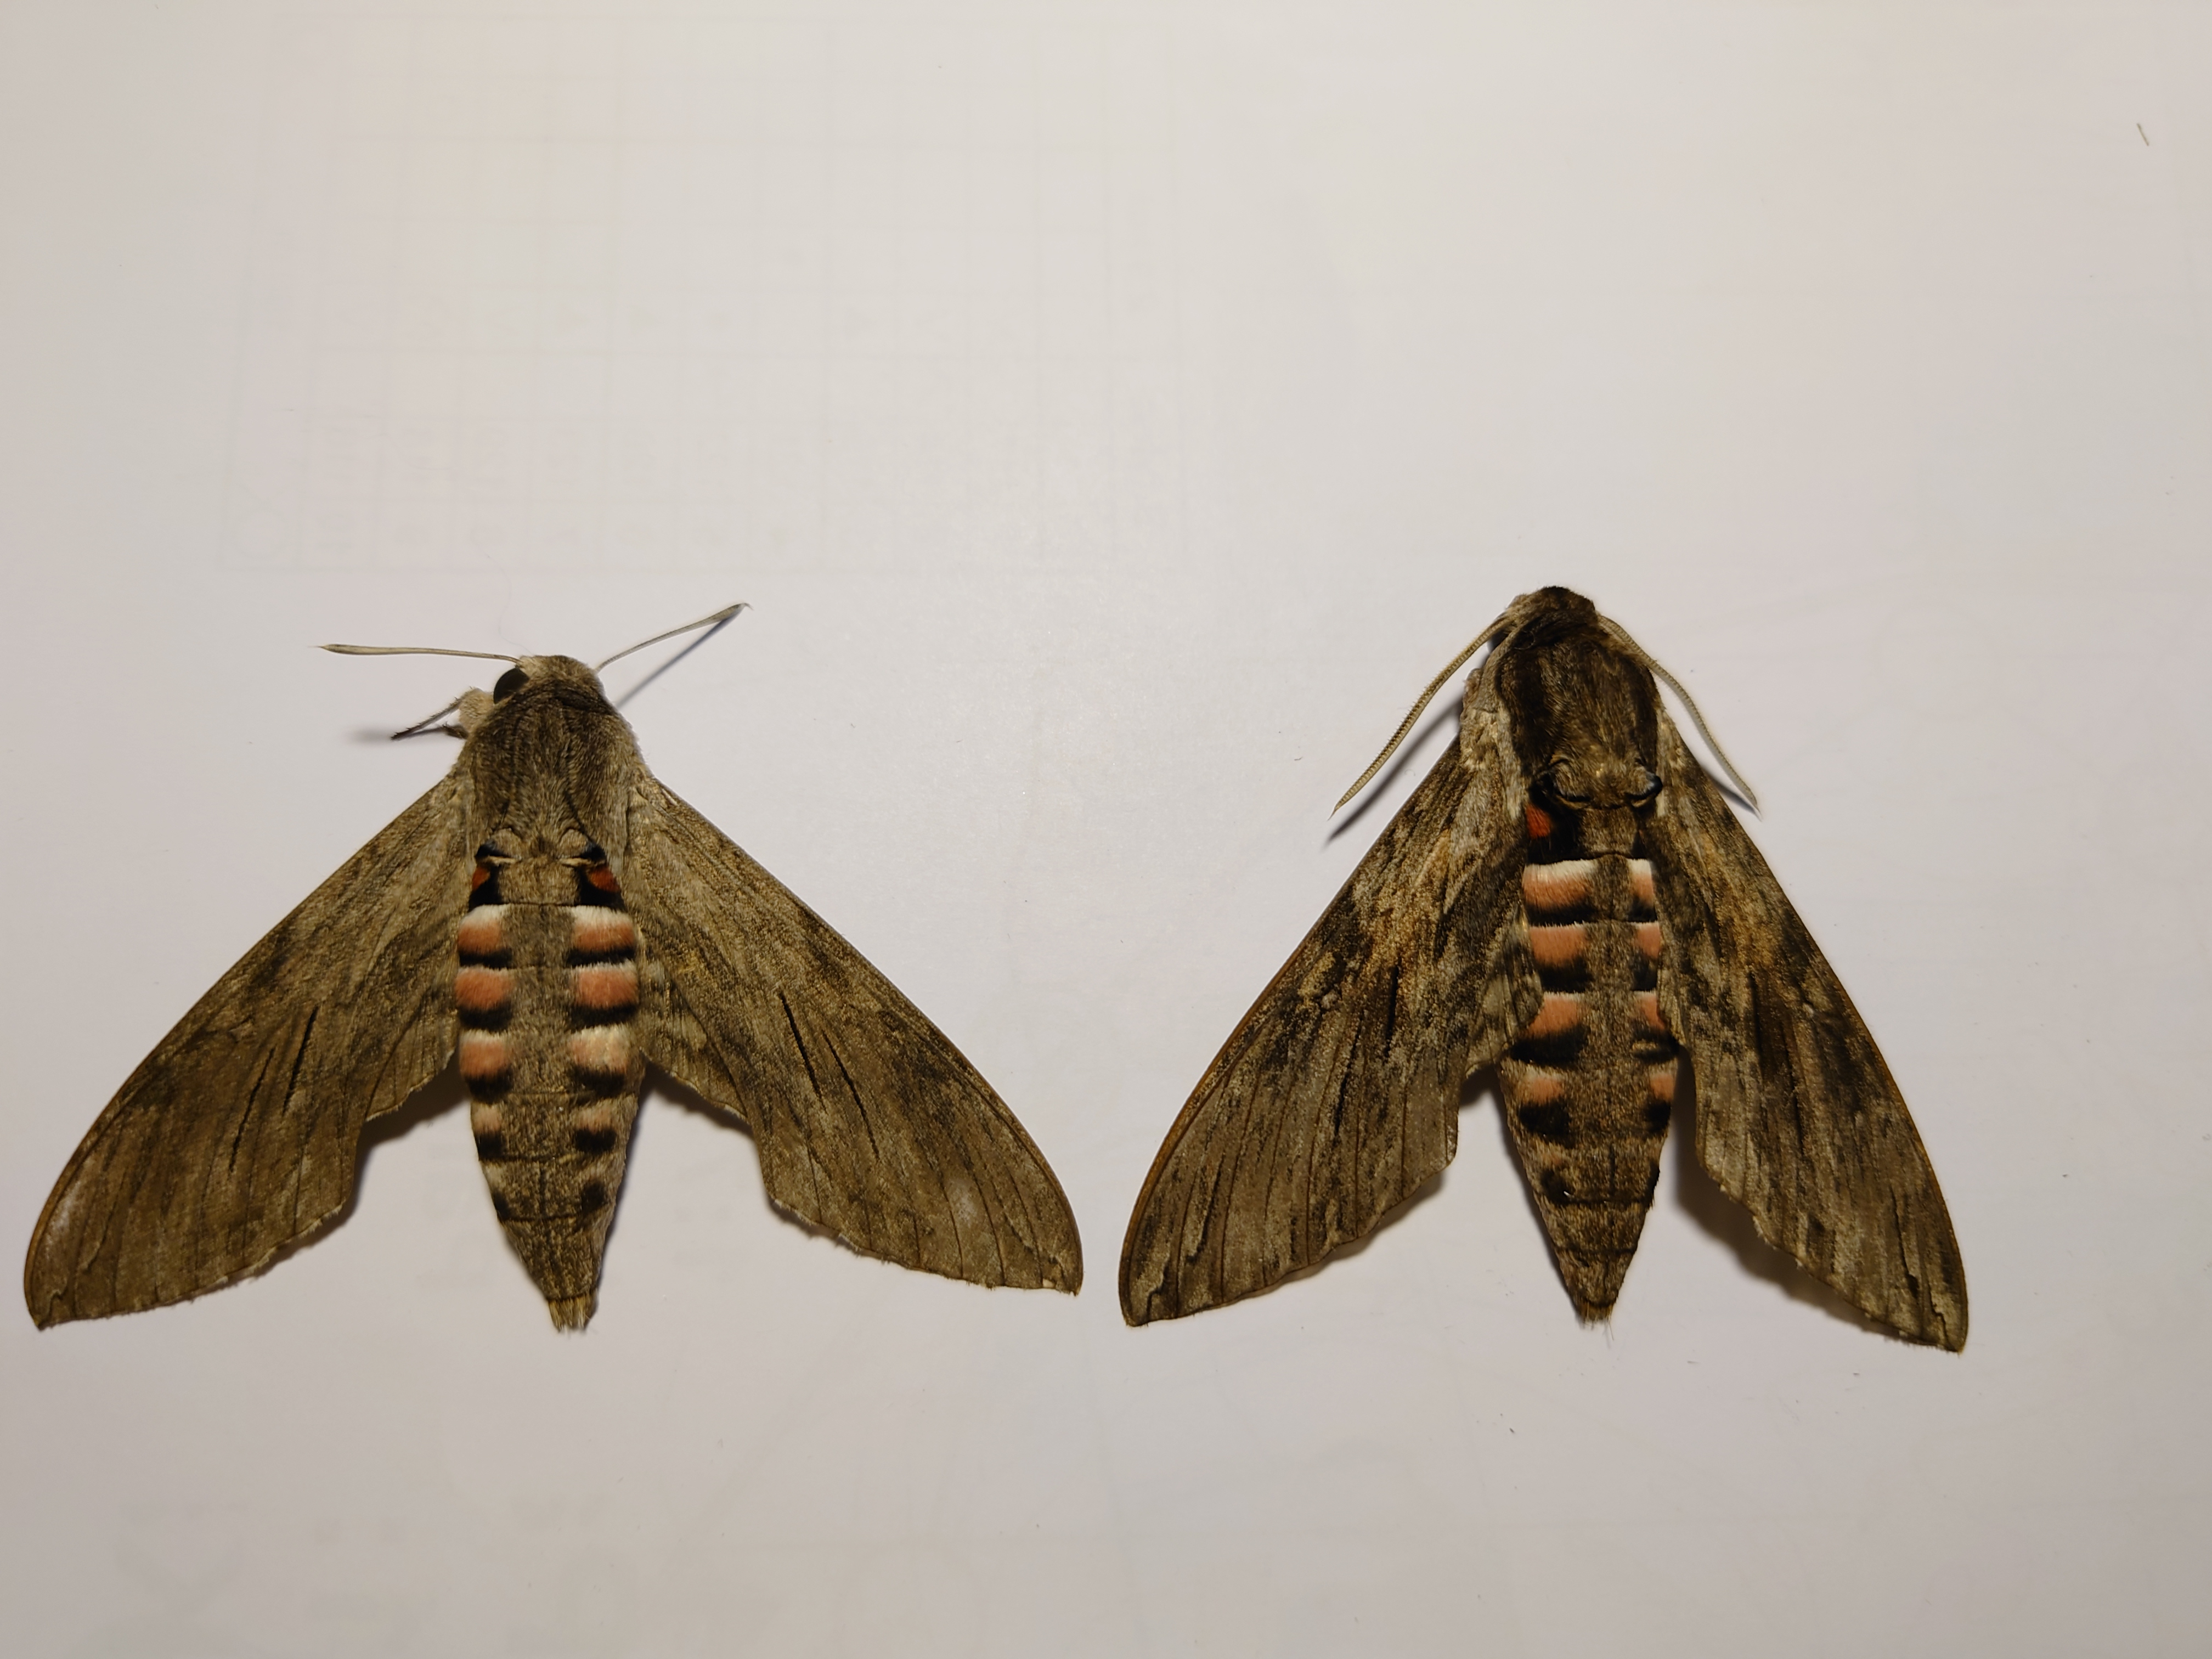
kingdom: Animalia
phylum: Arthropoda
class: Insecta
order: Lepidoptera
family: Sphingidae
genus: Agrius
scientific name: Agrius convolvuli
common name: Convolvulus hawkmoth
